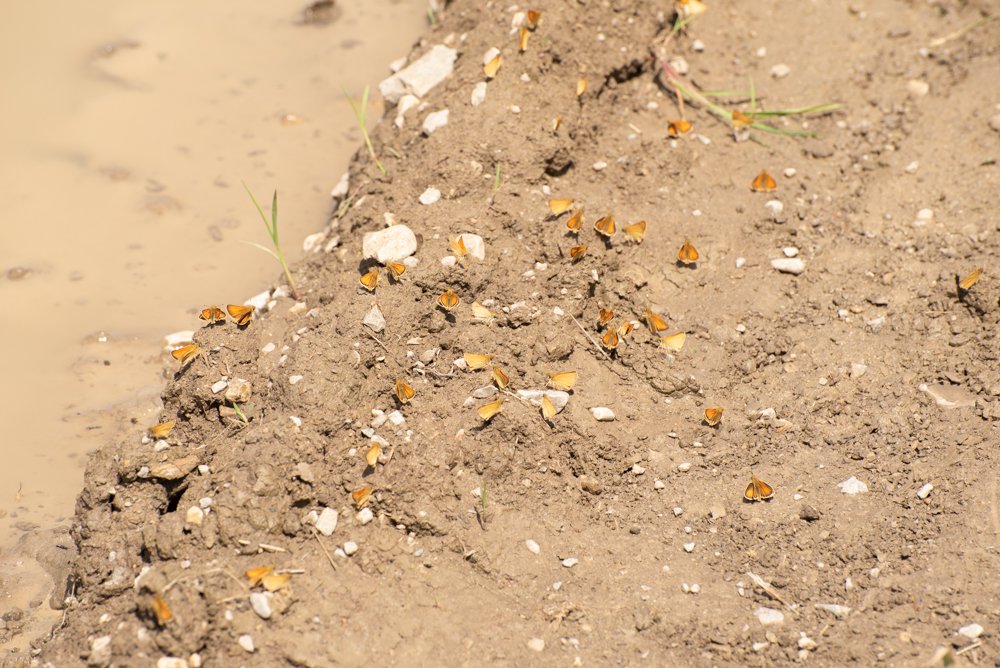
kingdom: Animalia
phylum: Arthropoda
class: Insecta
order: Lepidoptera
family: Hesperiidae
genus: Thymelicus
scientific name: Thymelicus lineola
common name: European Skipper
